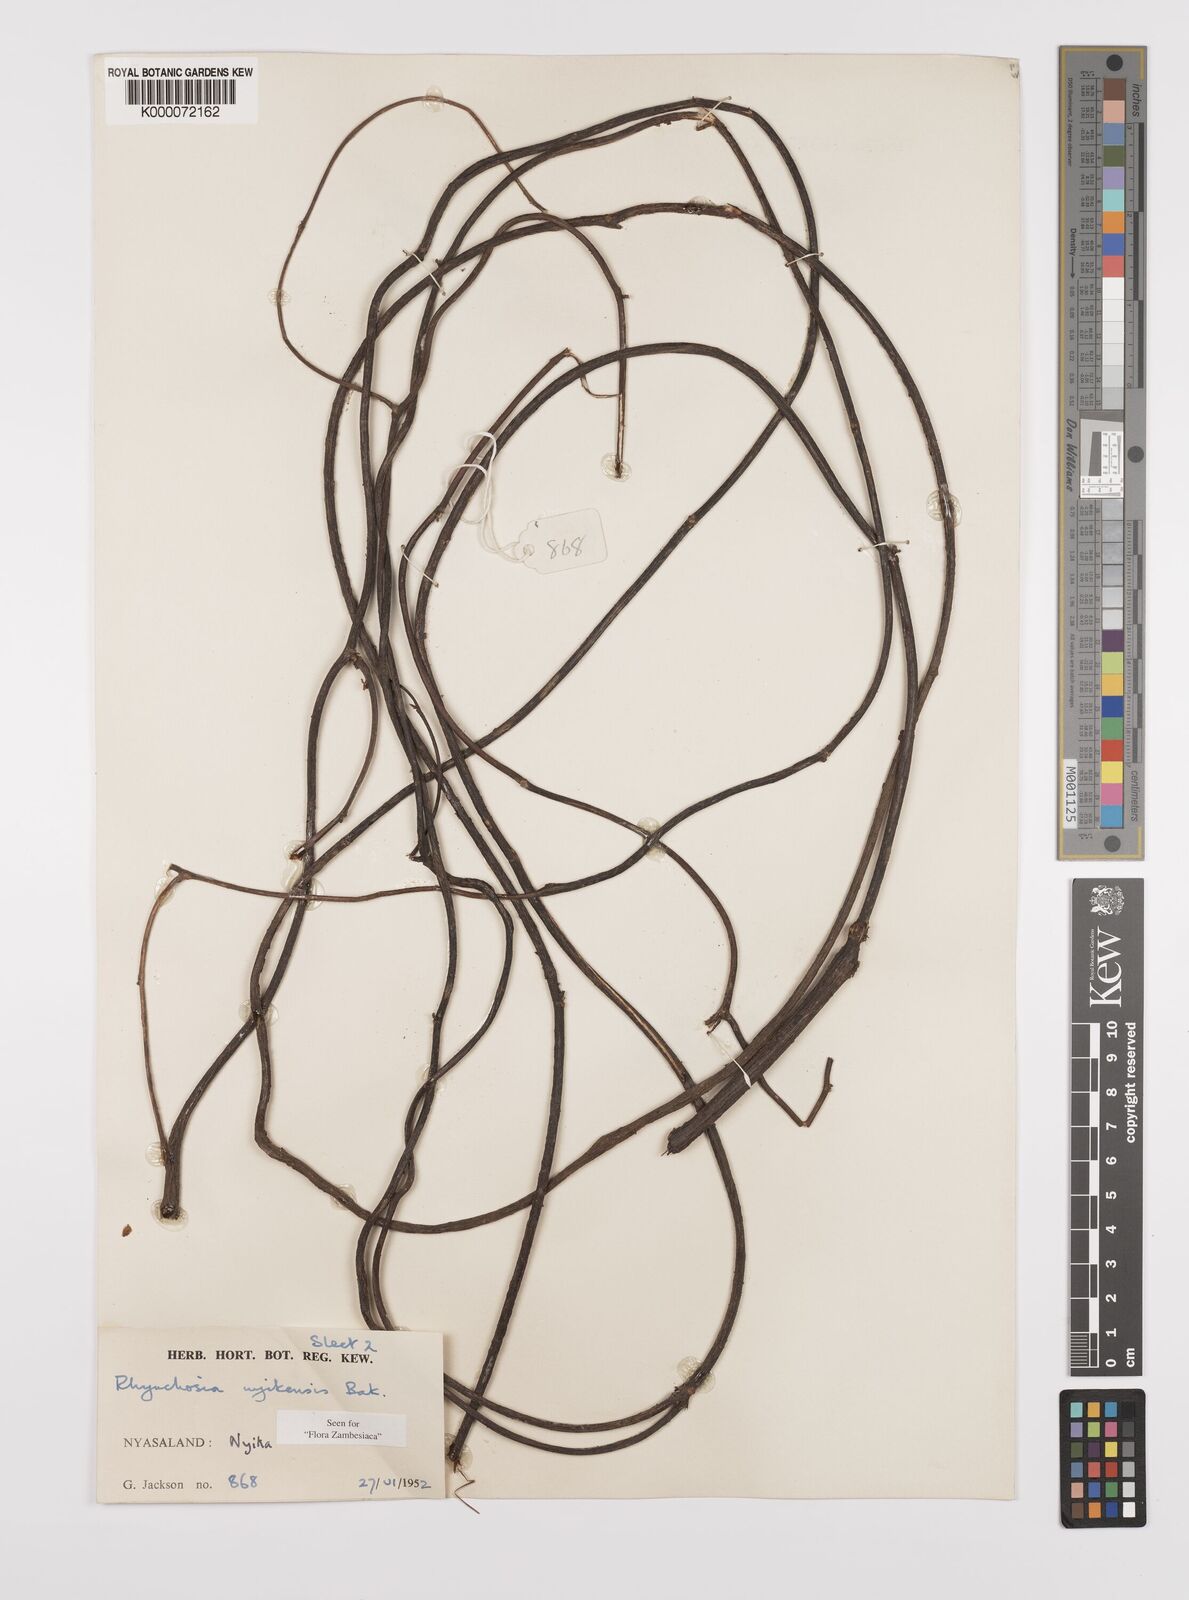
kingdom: Plantae
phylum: Tracheophyta
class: Magnoliopsida
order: Fabales
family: Fabaceae
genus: Rhynchosia
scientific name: Rhynchosia nyikensis
